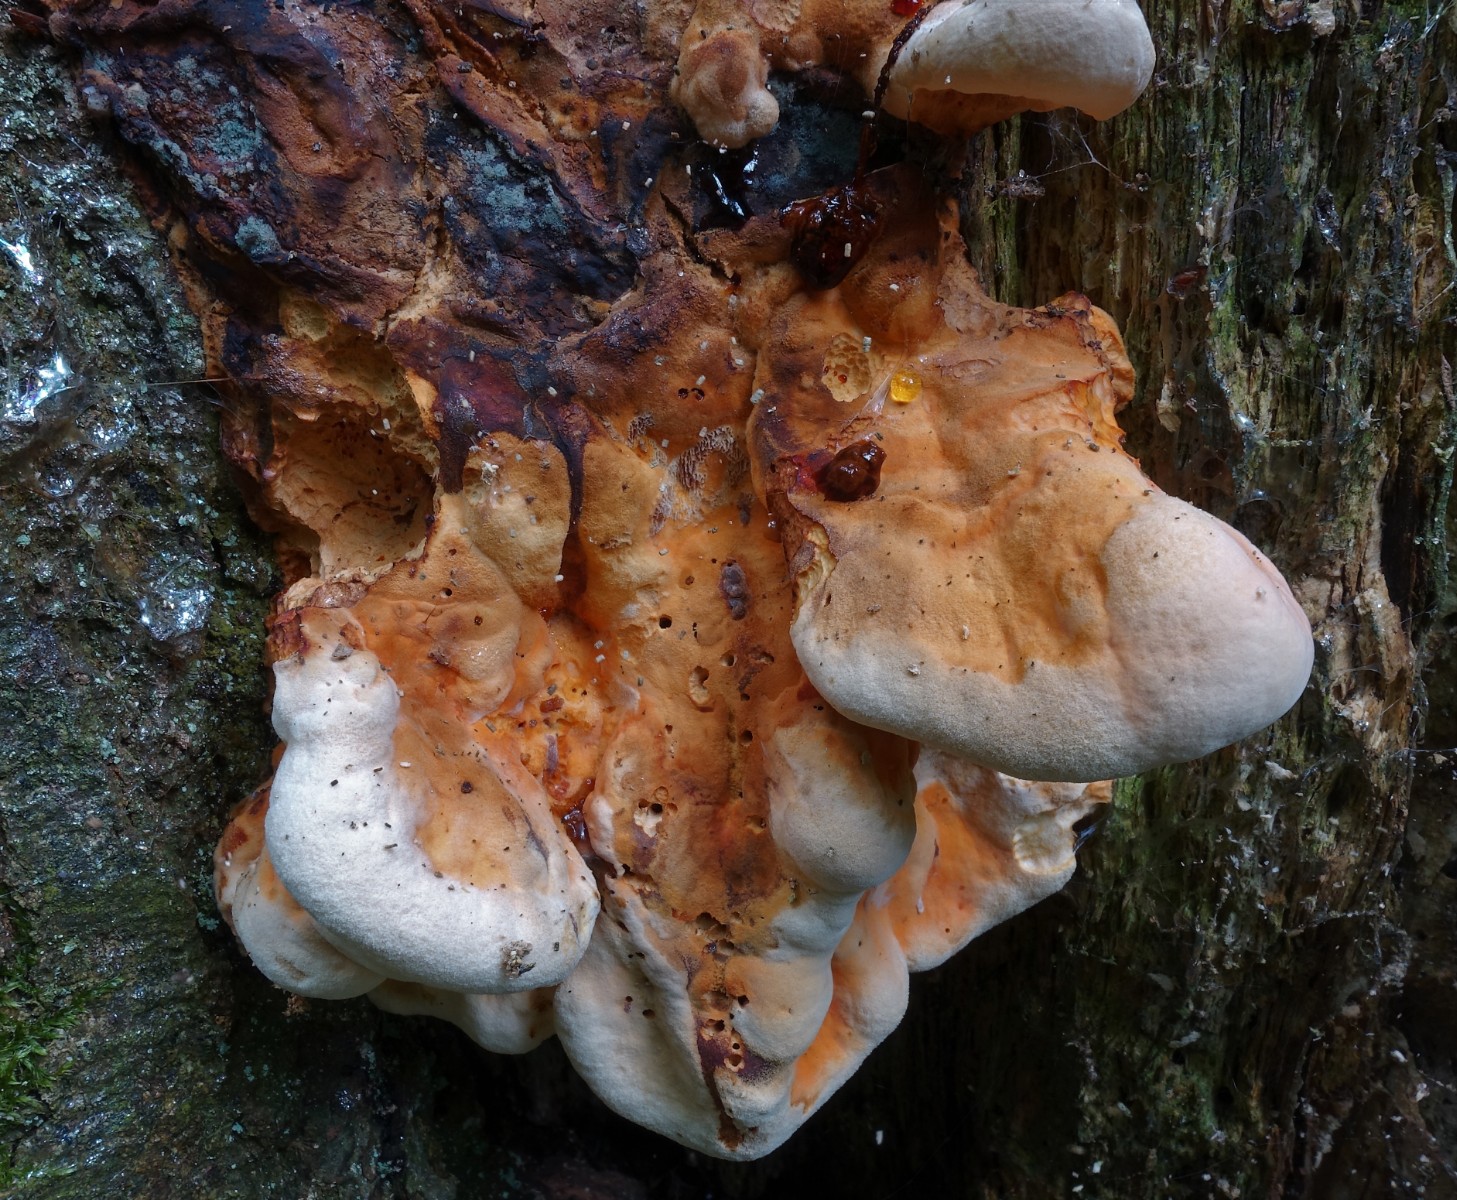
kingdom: Fungi
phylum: Basidiomycota
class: Agaricomycetes
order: Polyporales
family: Laetiporaceae
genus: Laetiporus
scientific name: Laetiporus sulphureus
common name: svovlporesvamp
